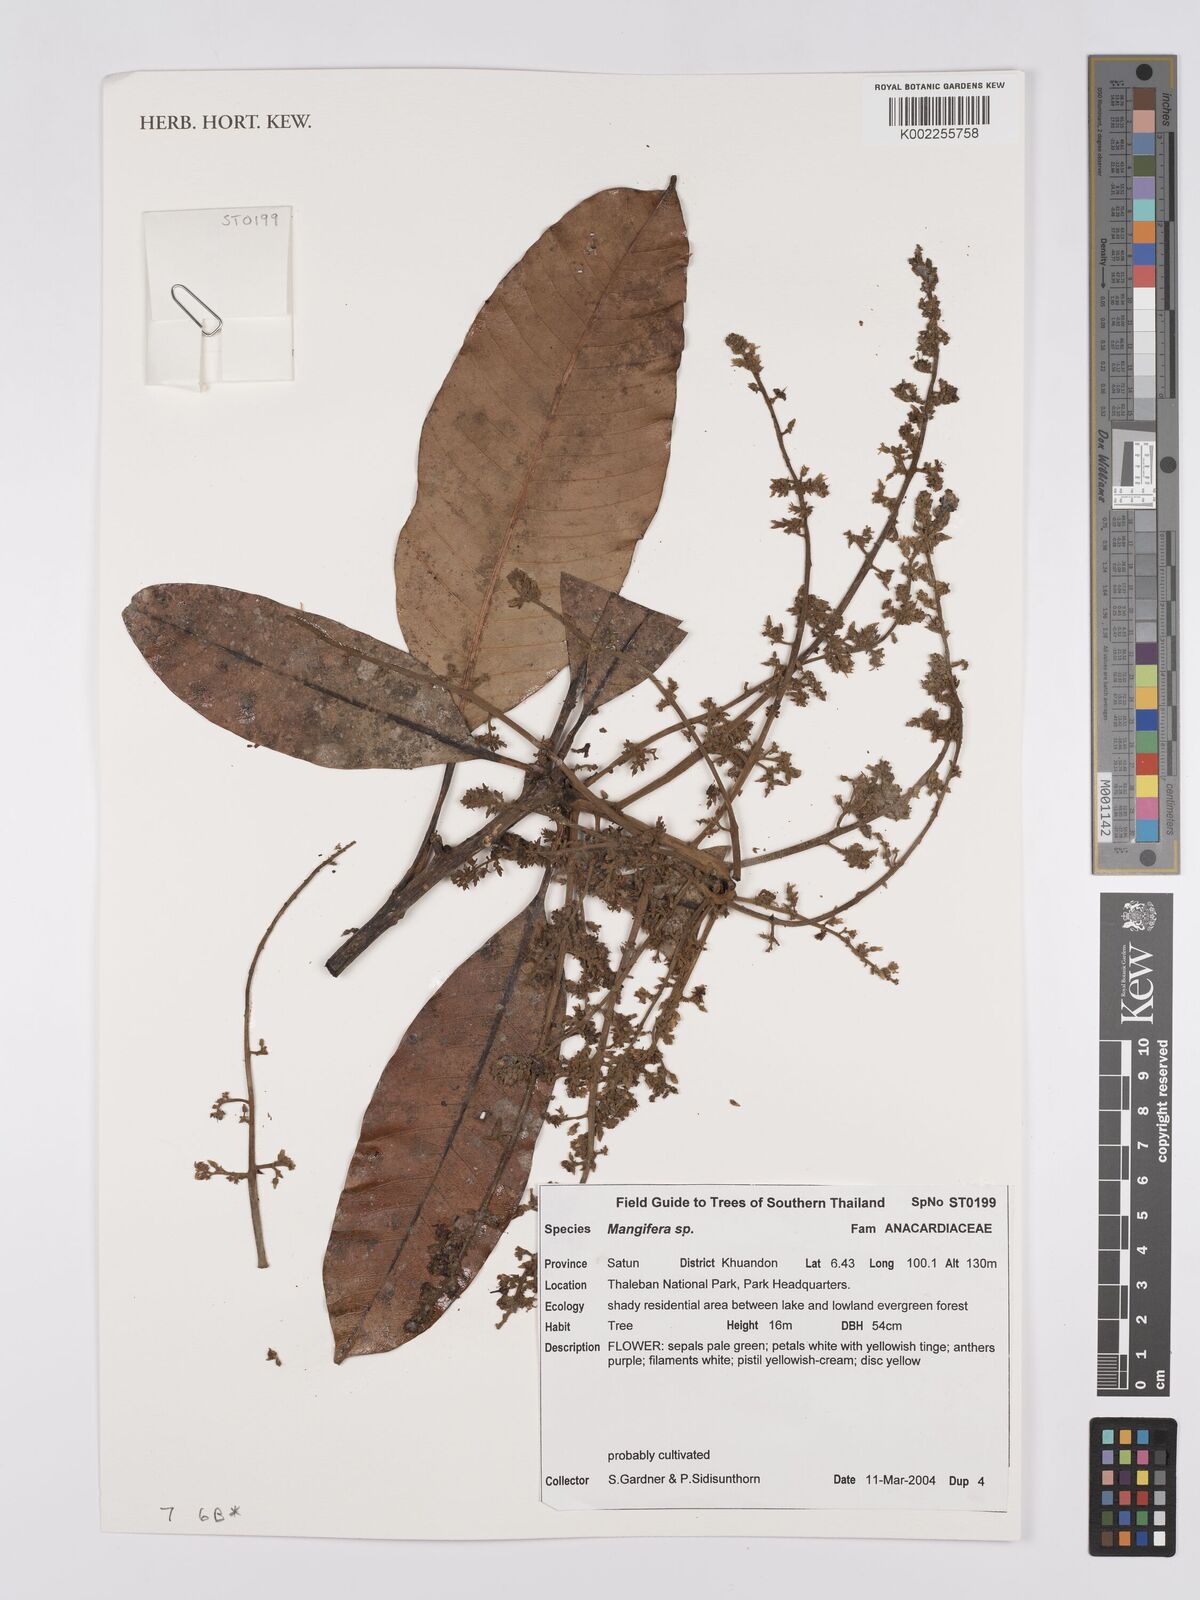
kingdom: Plantae
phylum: Tracheophyta
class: Magnoliopsida
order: Sapindales
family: Anacardiaceae
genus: Mangifera
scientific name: Mangifera
